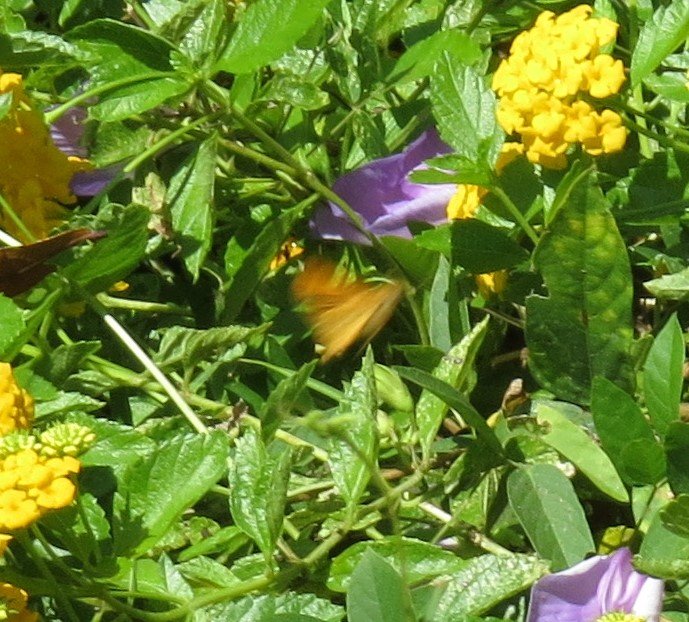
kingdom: Animalia
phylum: Arthropoda
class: Insecta
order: Lepidoptera
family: Pieridae
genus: Abaeis
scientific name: Abaeis nicippe
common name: Sleepy Orange
